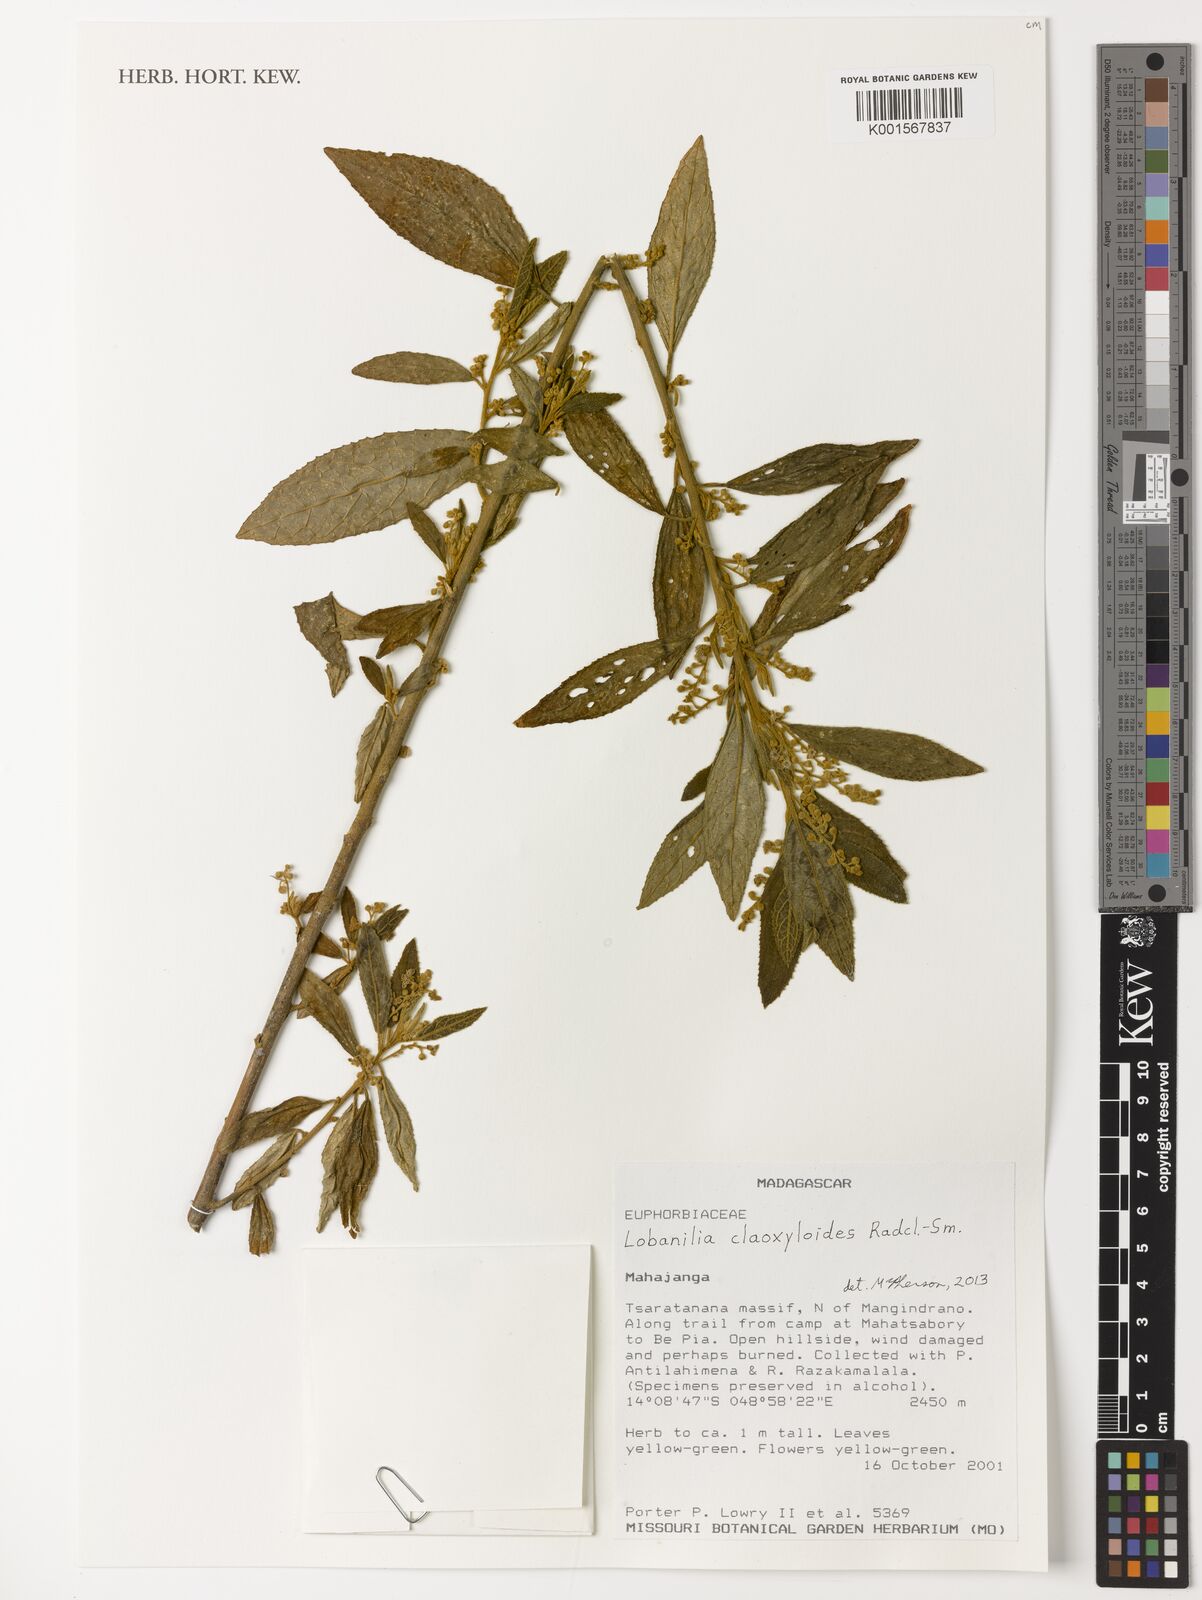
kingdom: Plantae
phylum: Tracheophyta
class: Magnoliopsida
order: Malpighiales
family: Euphorbiaceae
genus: Lobanilia
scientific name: Lobanilia claoxyloides
